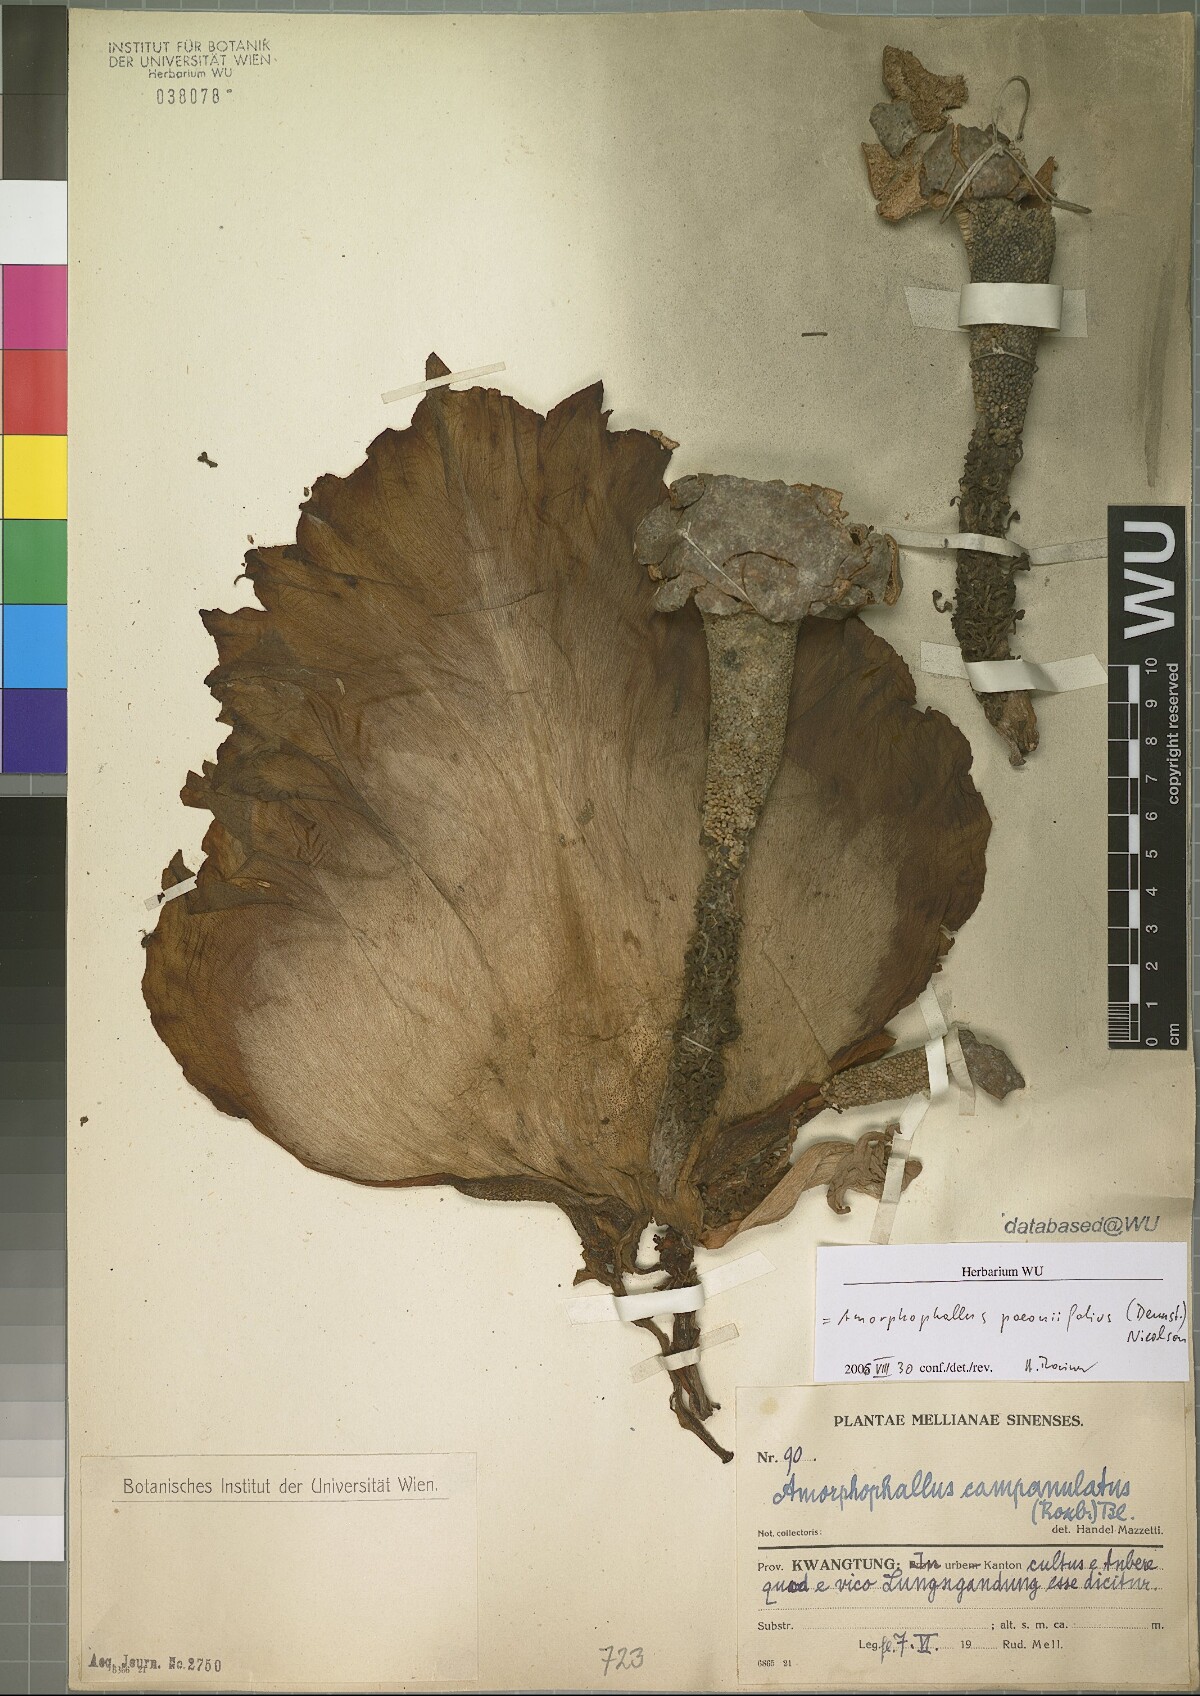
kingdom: Plantae
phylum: Tracheophyta
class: Liliopsida
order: Alismatales
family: Araceae
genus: Amorphophallus
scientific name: Amorphophallus paeoniifolius
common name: Telinga-potato
